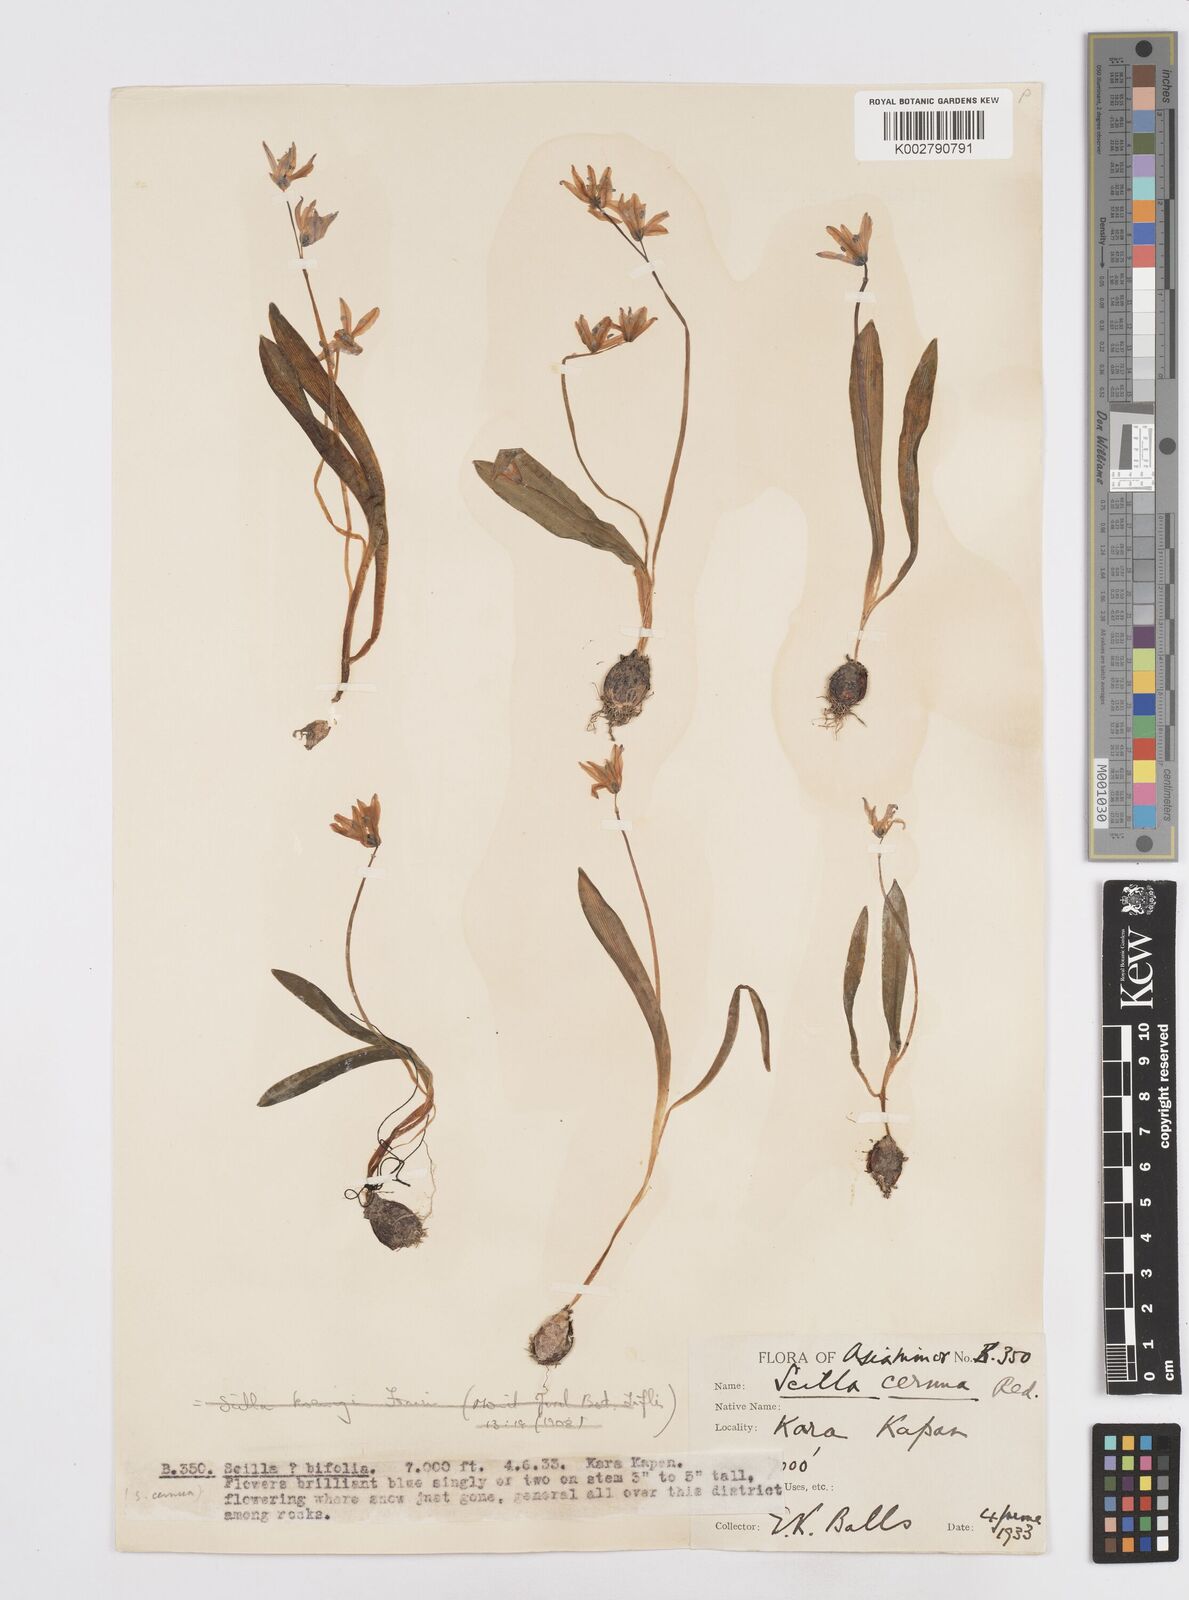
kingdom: Plantae
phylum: Tracheophyta
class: Liliopsida
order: Asparagales
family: Asparagaceae
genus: Scilla
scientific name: Scilla siberica
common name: Siberian squill
